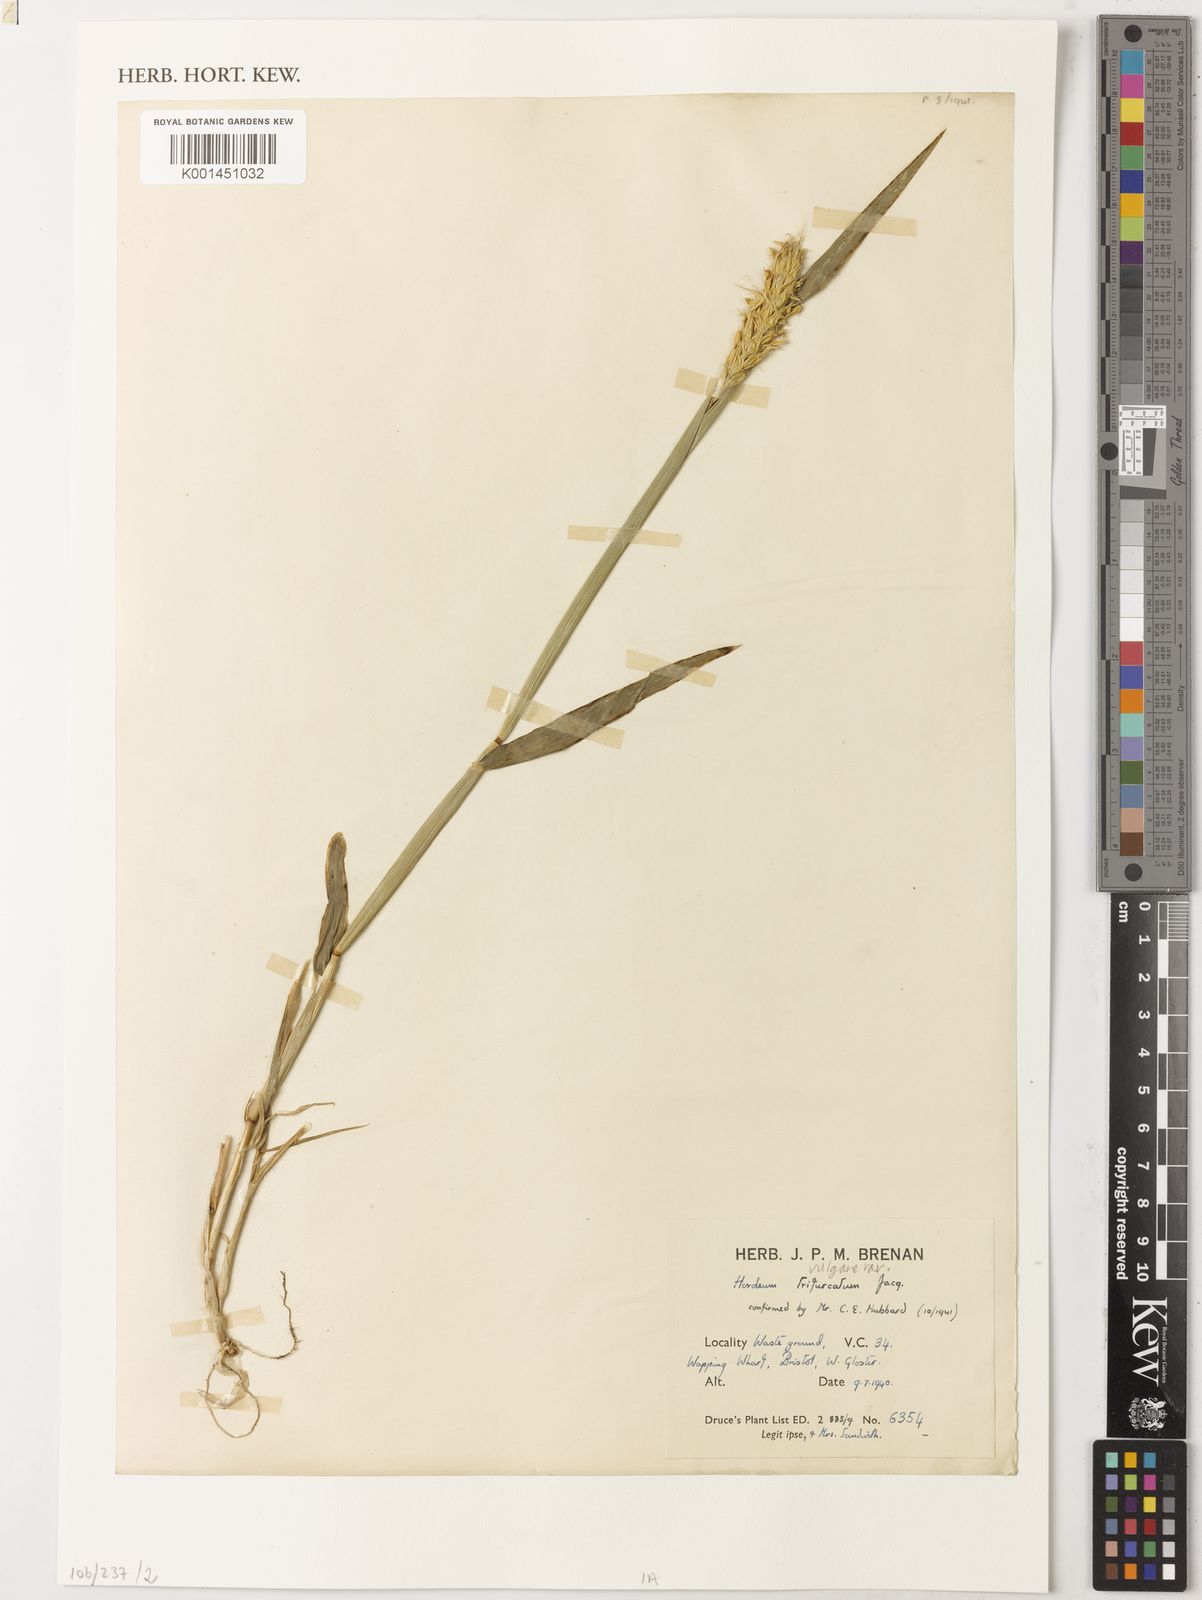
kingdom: Plantae
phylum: Tracheophyta
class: Liliopsida
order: Poales
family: Poaceae
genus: Hordeum
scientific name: Hordeum vulgare
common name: Common barley
